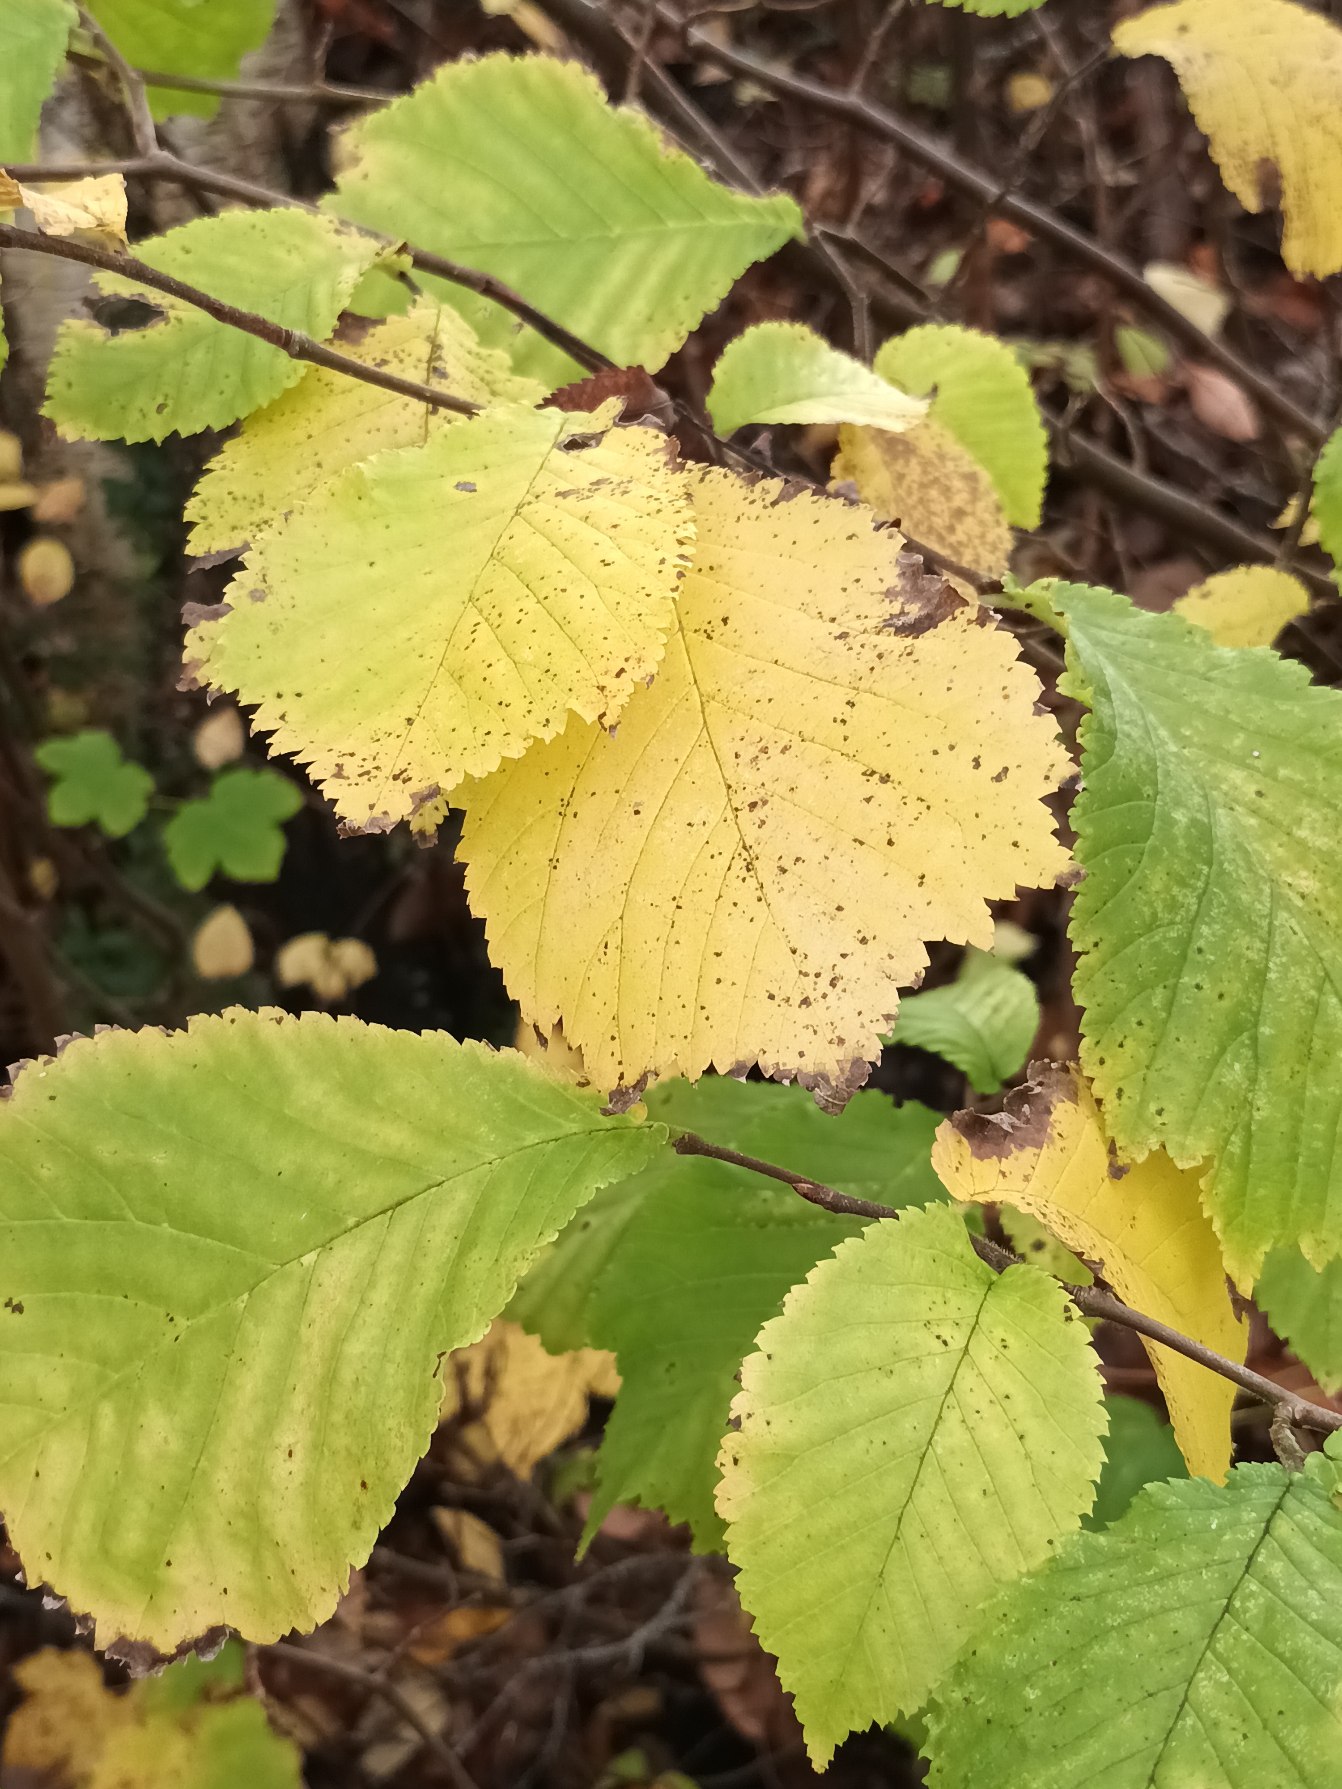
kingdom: Plantae
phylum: Tracheophyta
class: Magnoliopsida
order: Rosales
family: Ulmaceae
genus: Ulmus
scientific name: Ulmus glabra
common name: Skov-elm/storbladet elm
